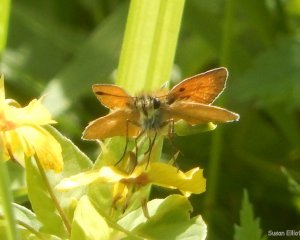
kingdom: Animalia
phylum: Arthropoda
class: Insecta
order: Lepidoptera
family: Hesperiidae
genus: Thymelicus
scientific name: Thymelicus lineola
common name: European Skipper
